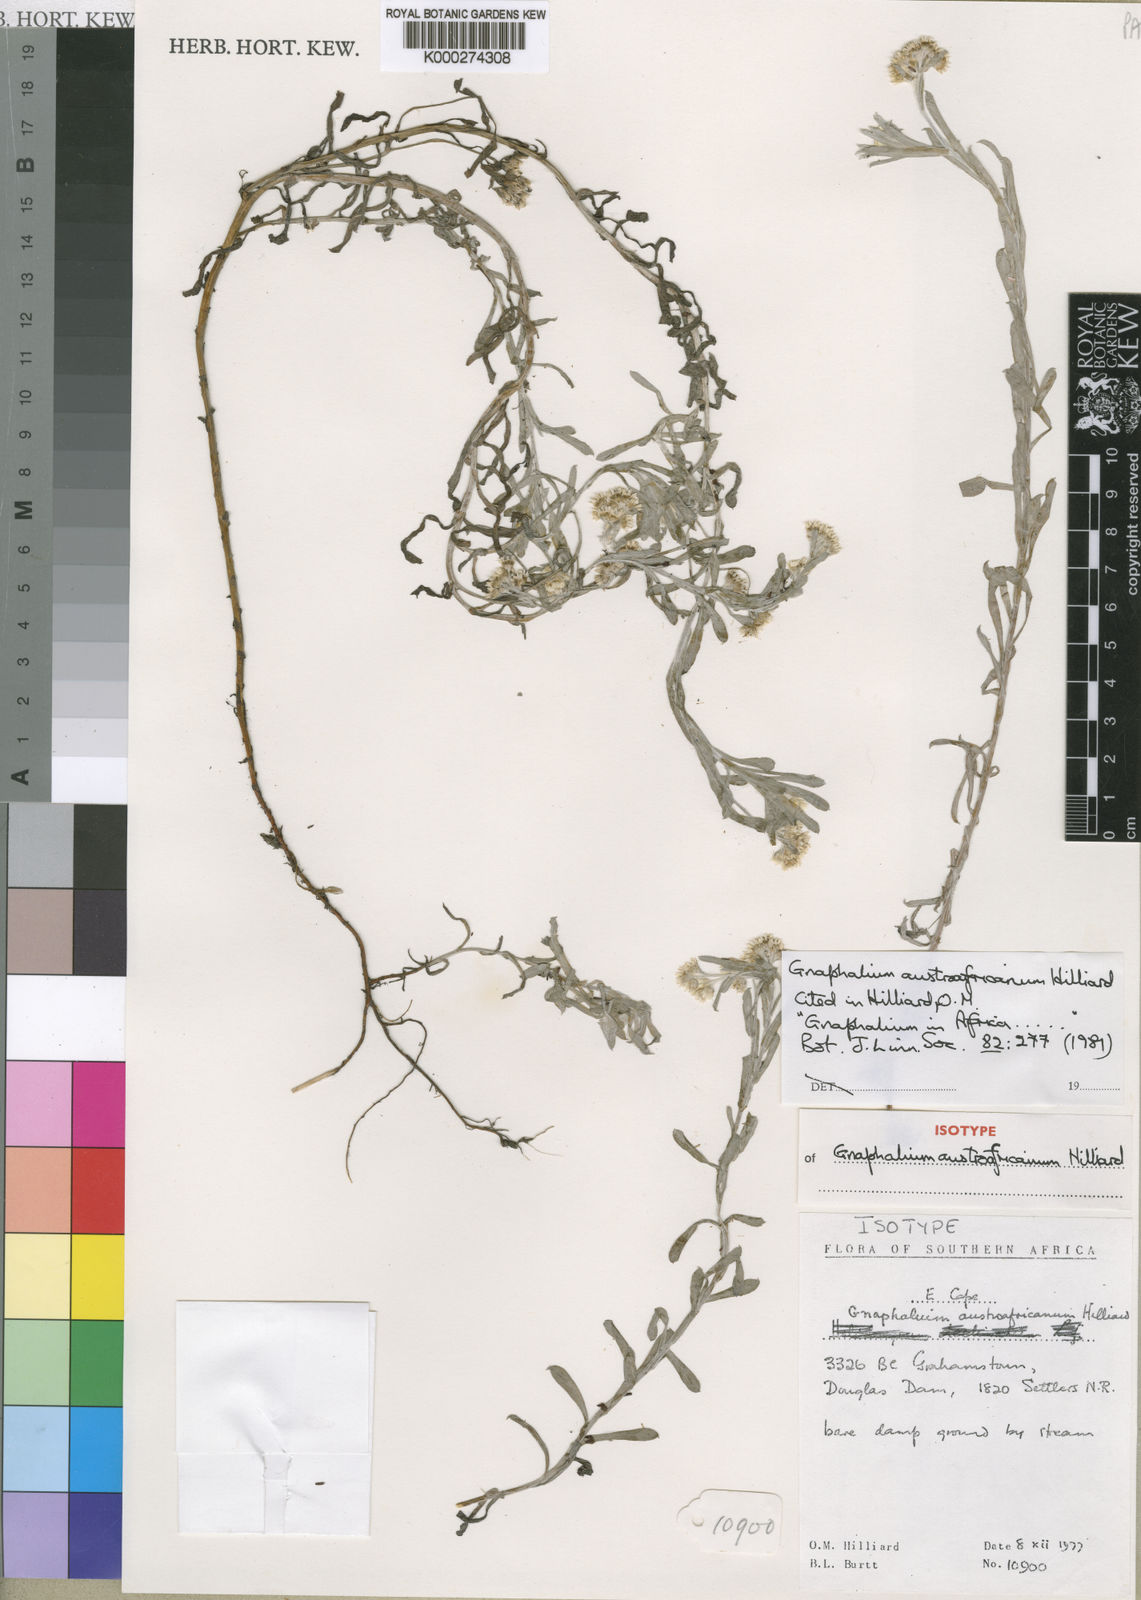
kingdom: Plantae
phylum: Tracheophyta
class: Magnoliopsida
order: Asterales
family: Asteraceae
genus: Gnaphalium
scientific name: Gnaphalium austroafricanum
